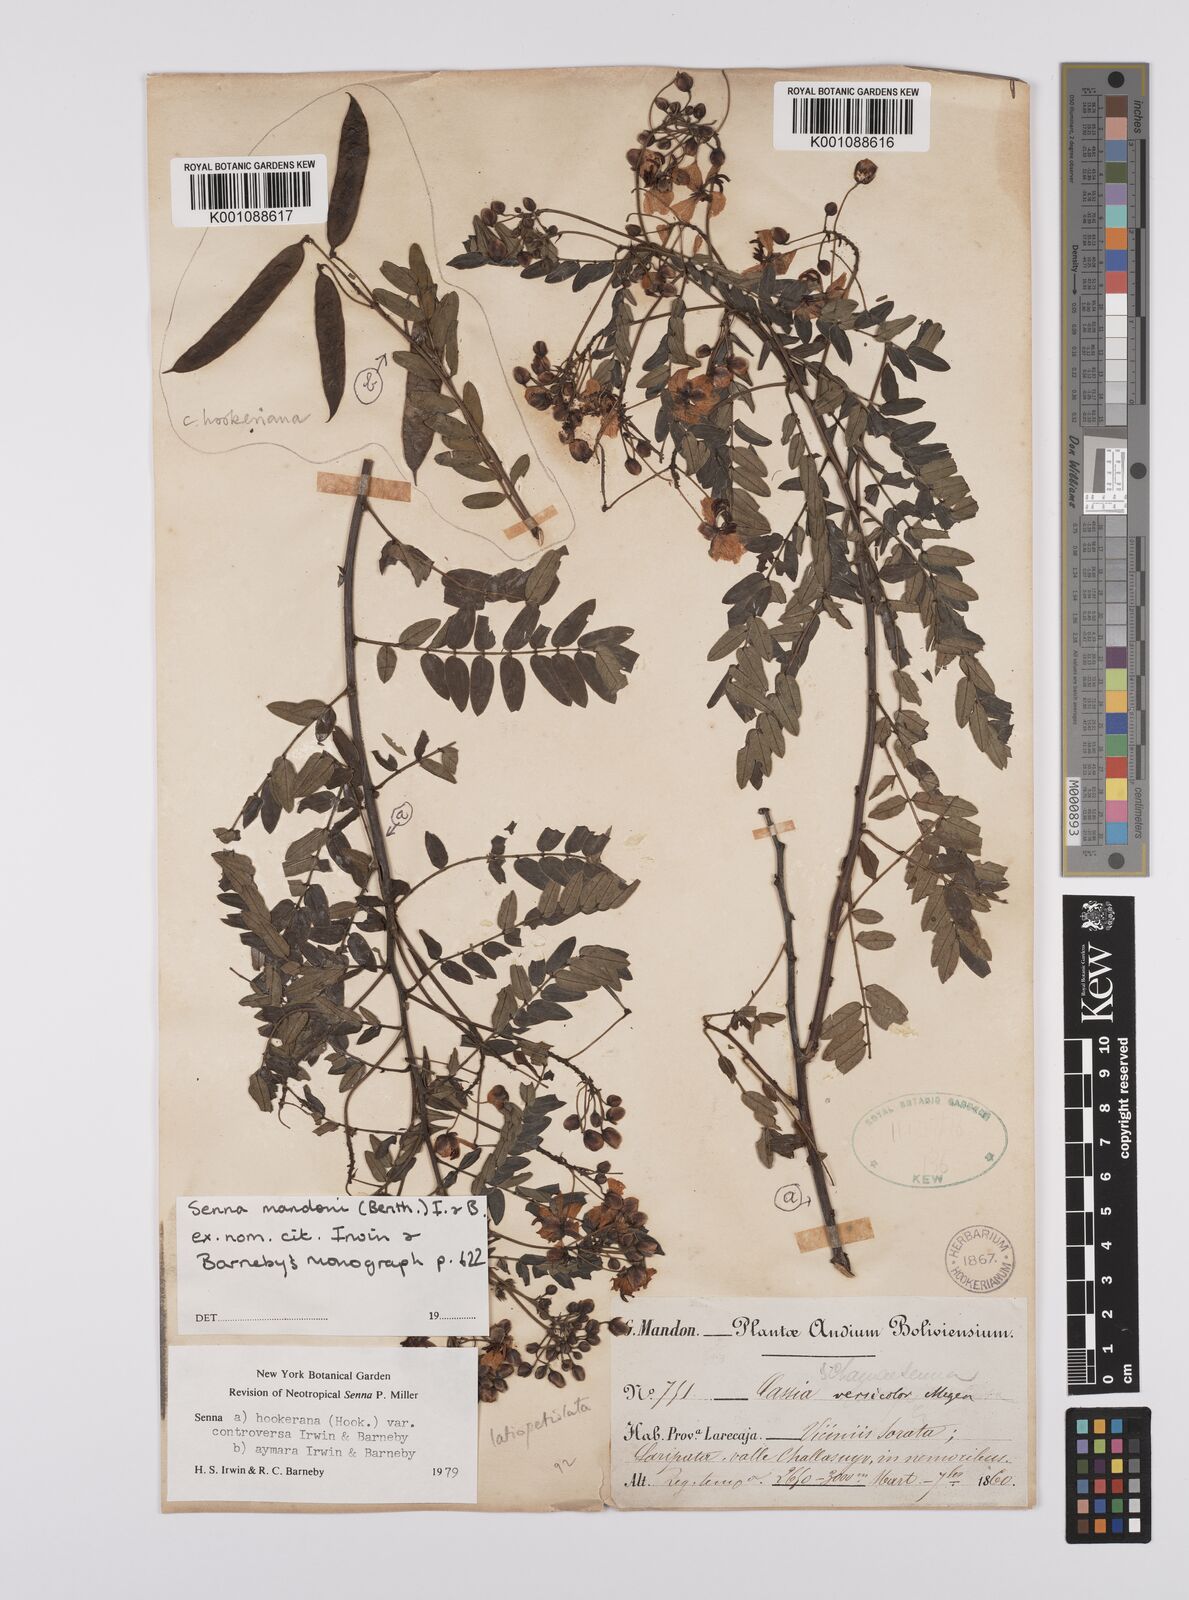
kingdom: Plantae
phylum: Tracheophyta
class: Magnoliopsida
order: Fabales
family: Fabaceae
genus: Senna
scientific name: Senna mandonii
